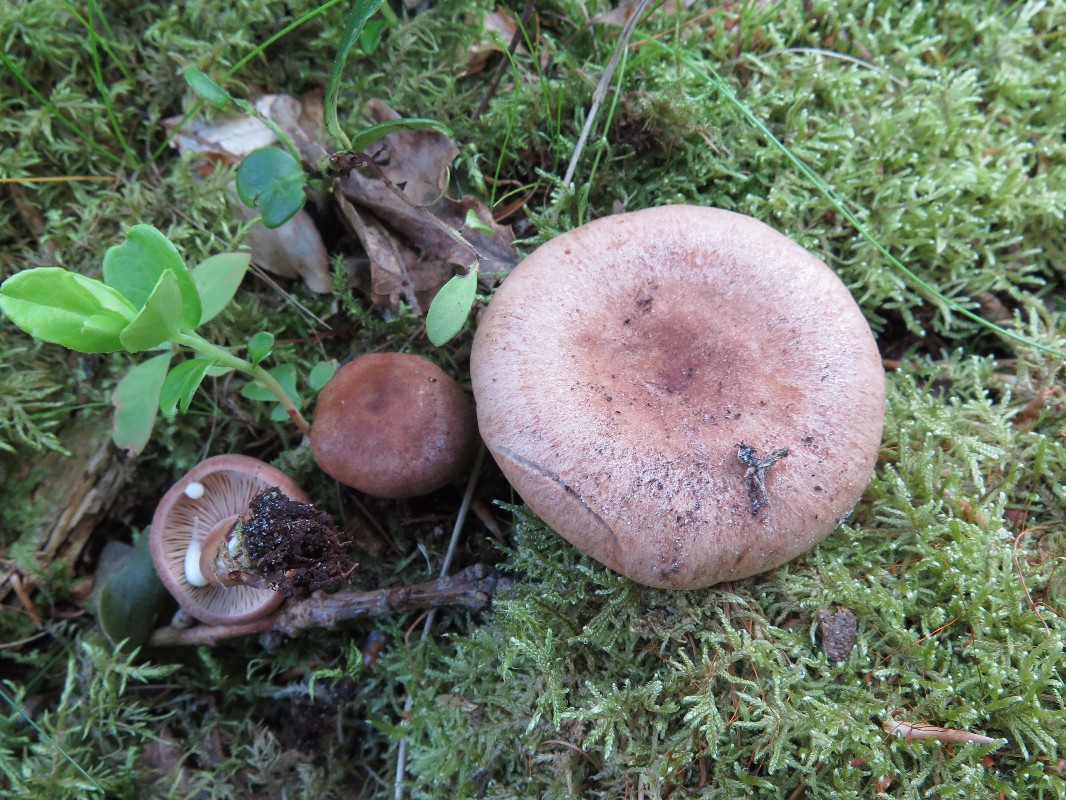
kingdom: Fungi
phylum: Basidiomycota
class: Agaricomycetes
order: Russulales
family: Russulaceae
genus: Lactarius
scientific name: Lactarius quietus
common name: ege-mælkehat
